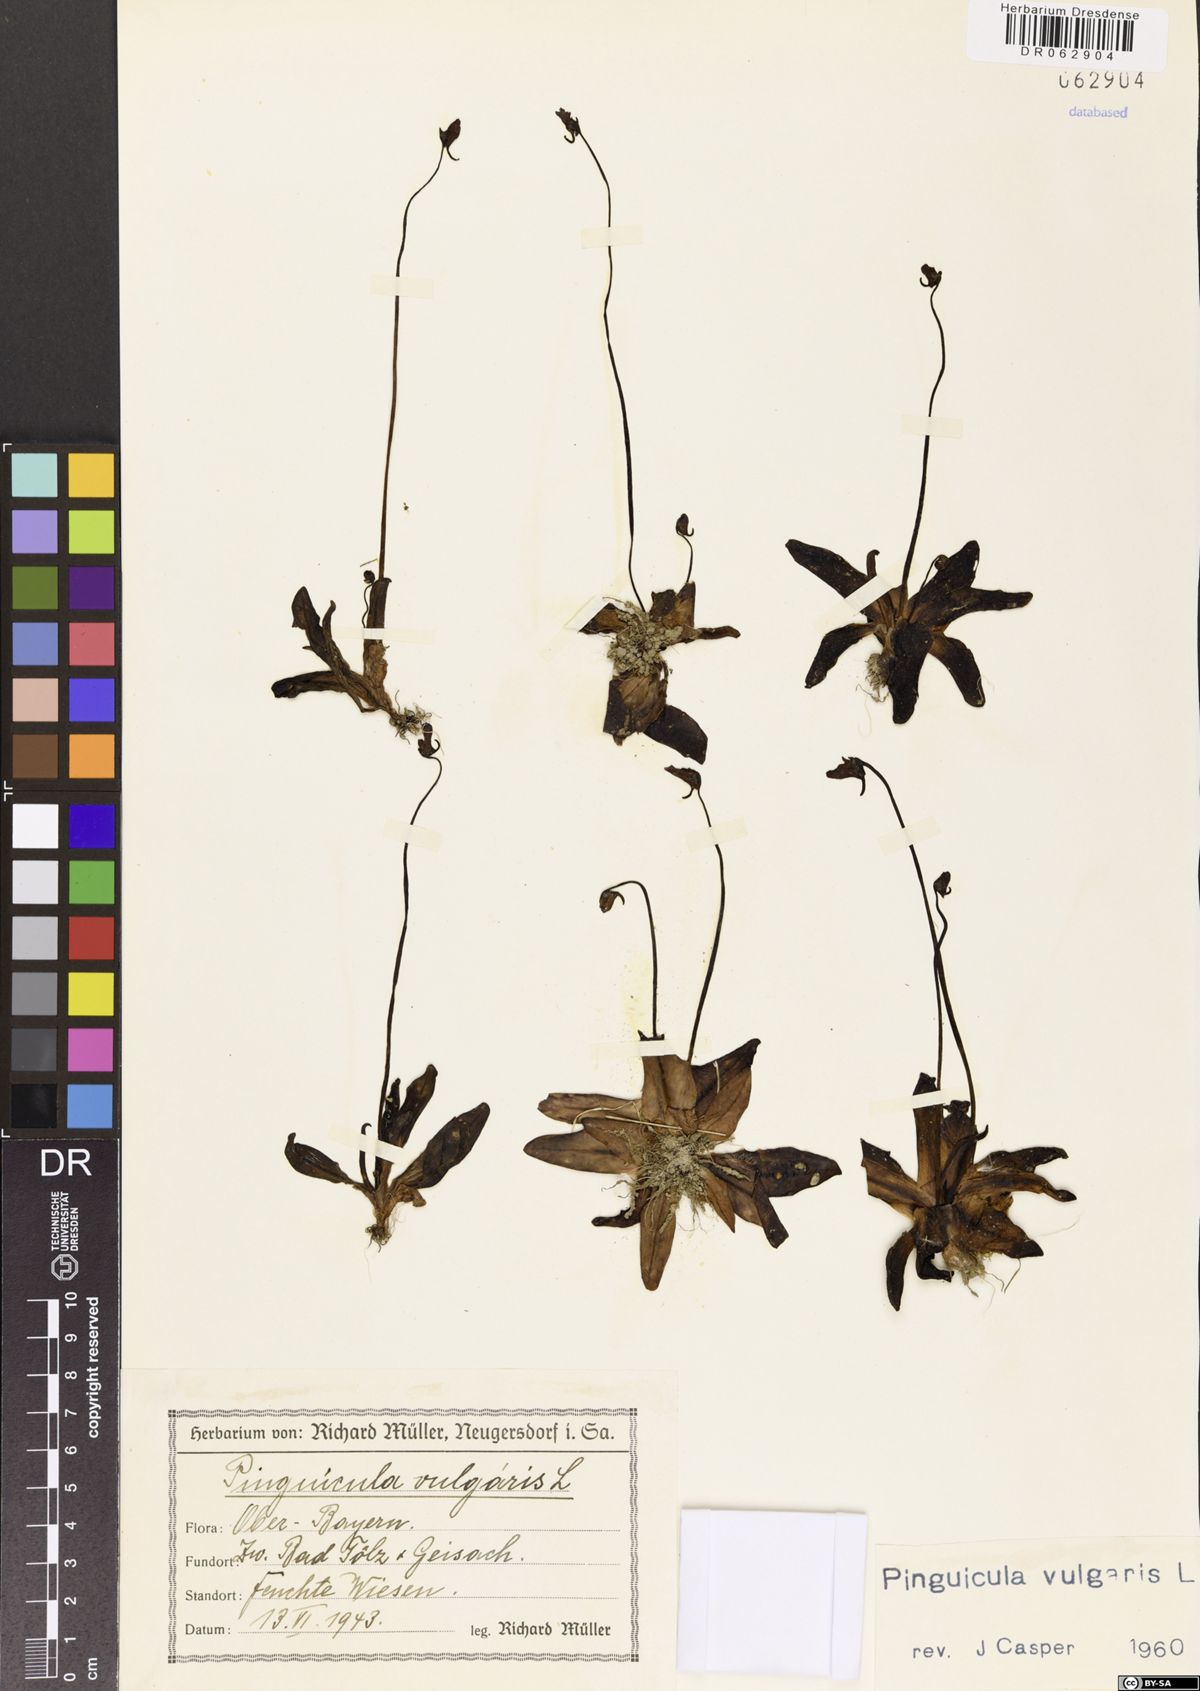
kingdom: Plantae
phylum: Tracheophyta
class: Magnoliopsida
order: Lamiales
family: Lentibulariaceae
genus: Pinguicula
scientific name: Pinguicula vulgaris
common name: Common butterwort
